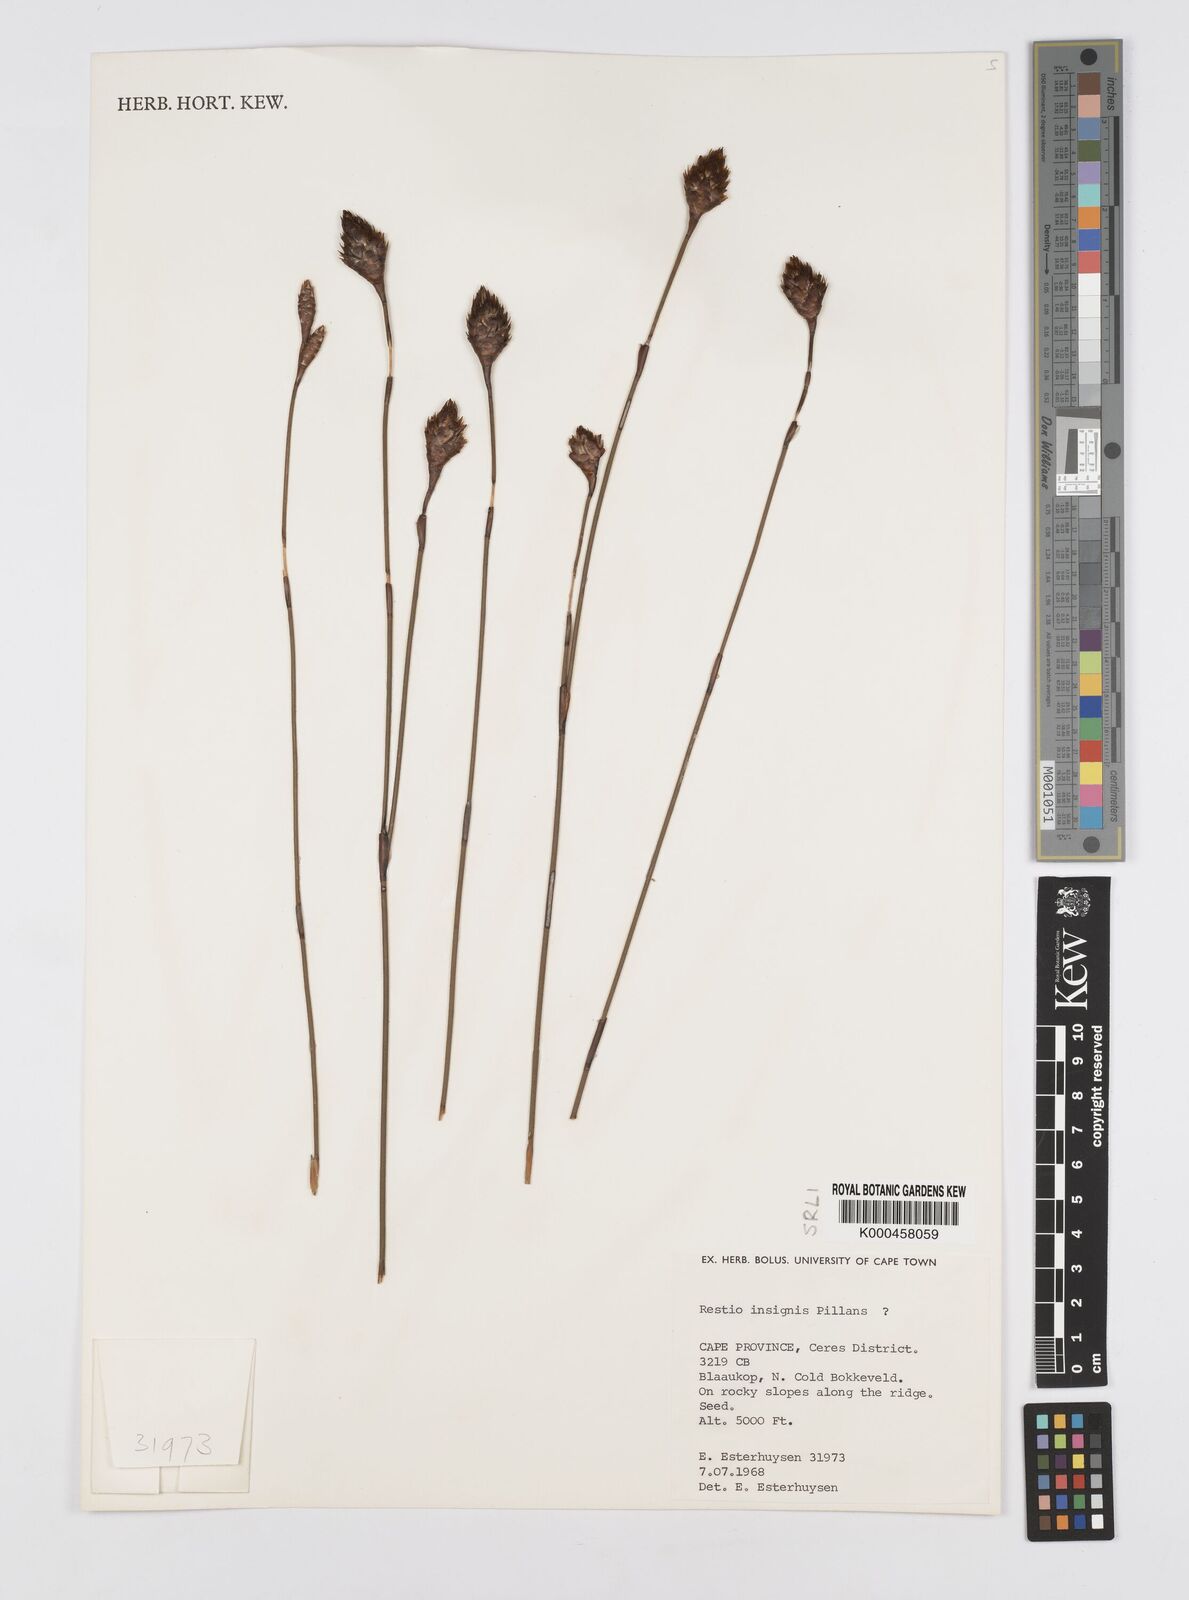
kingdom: Plantae
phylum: Tracheophyta
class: Liliopsida
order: Poales
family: Restionaceae
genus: Restio
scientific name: Restio insignis
